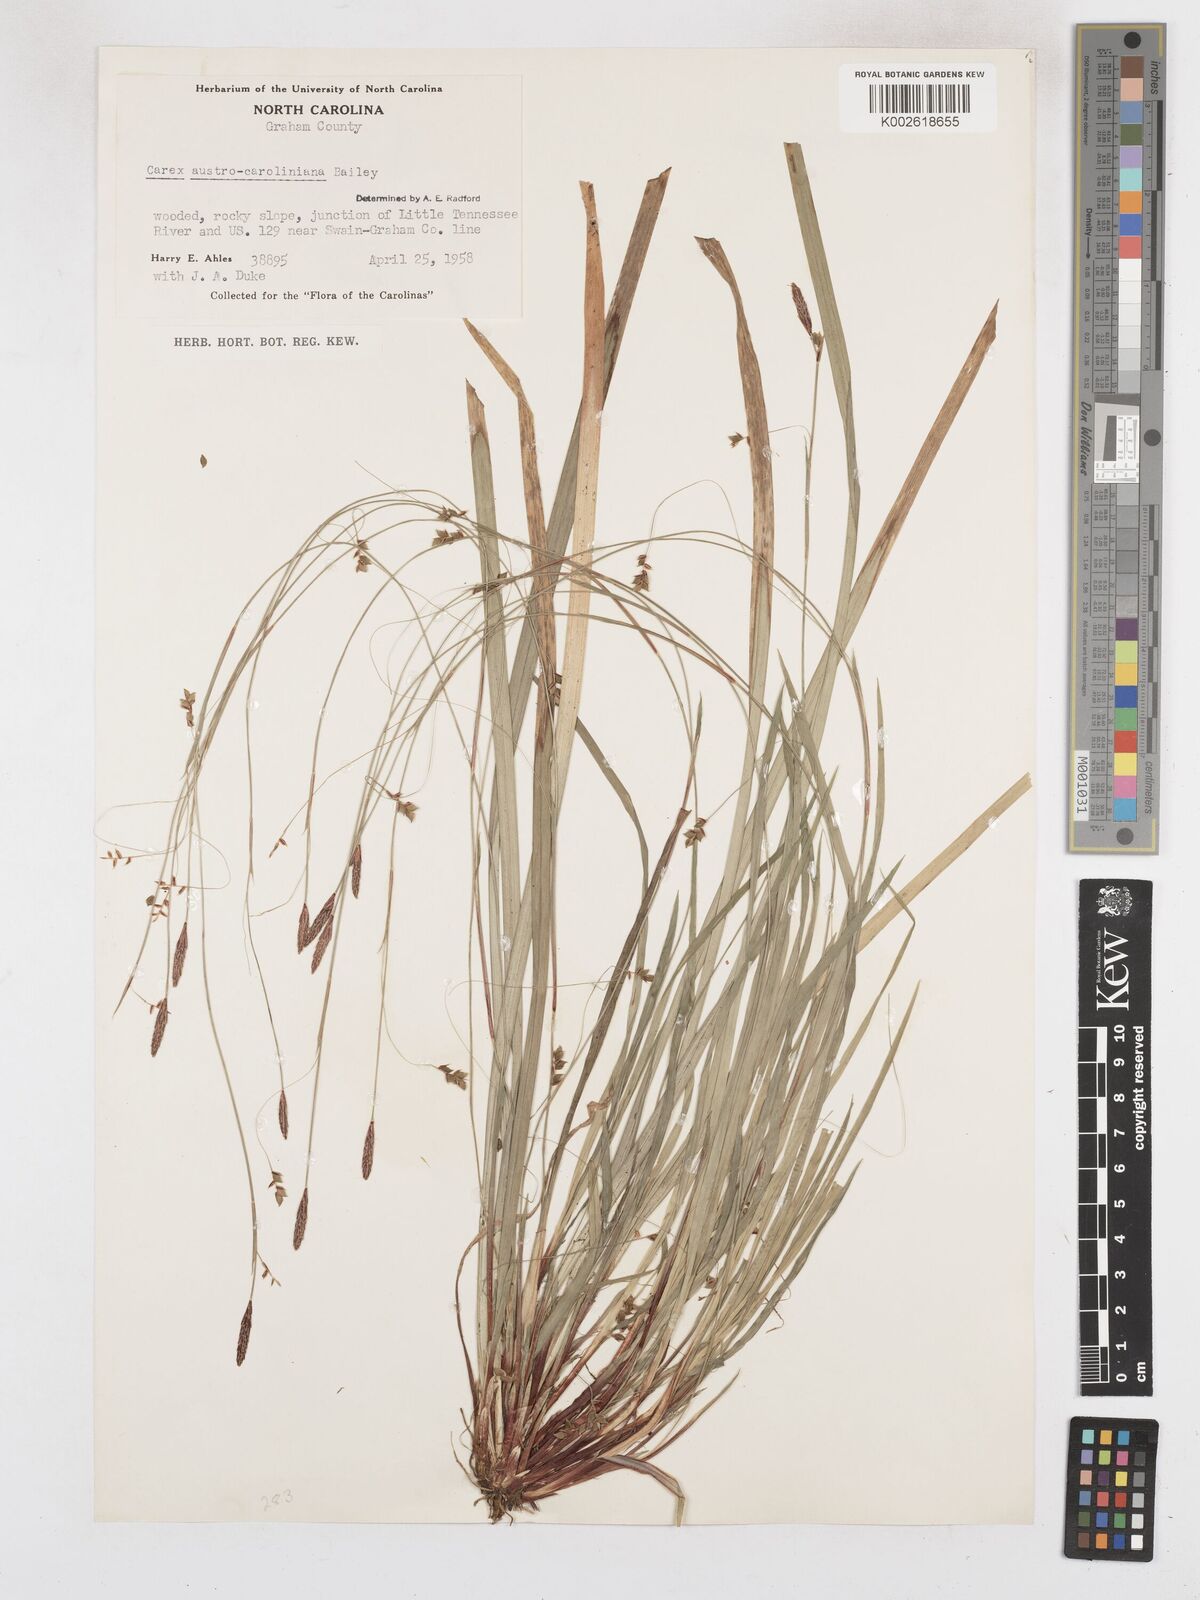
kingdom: Plantae
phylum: Tracheophyta
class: Liliopsida
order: Poales
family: Cyperaceae
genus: Carex
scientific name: Carex austrocaroliniana
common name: Tarheel sedge
